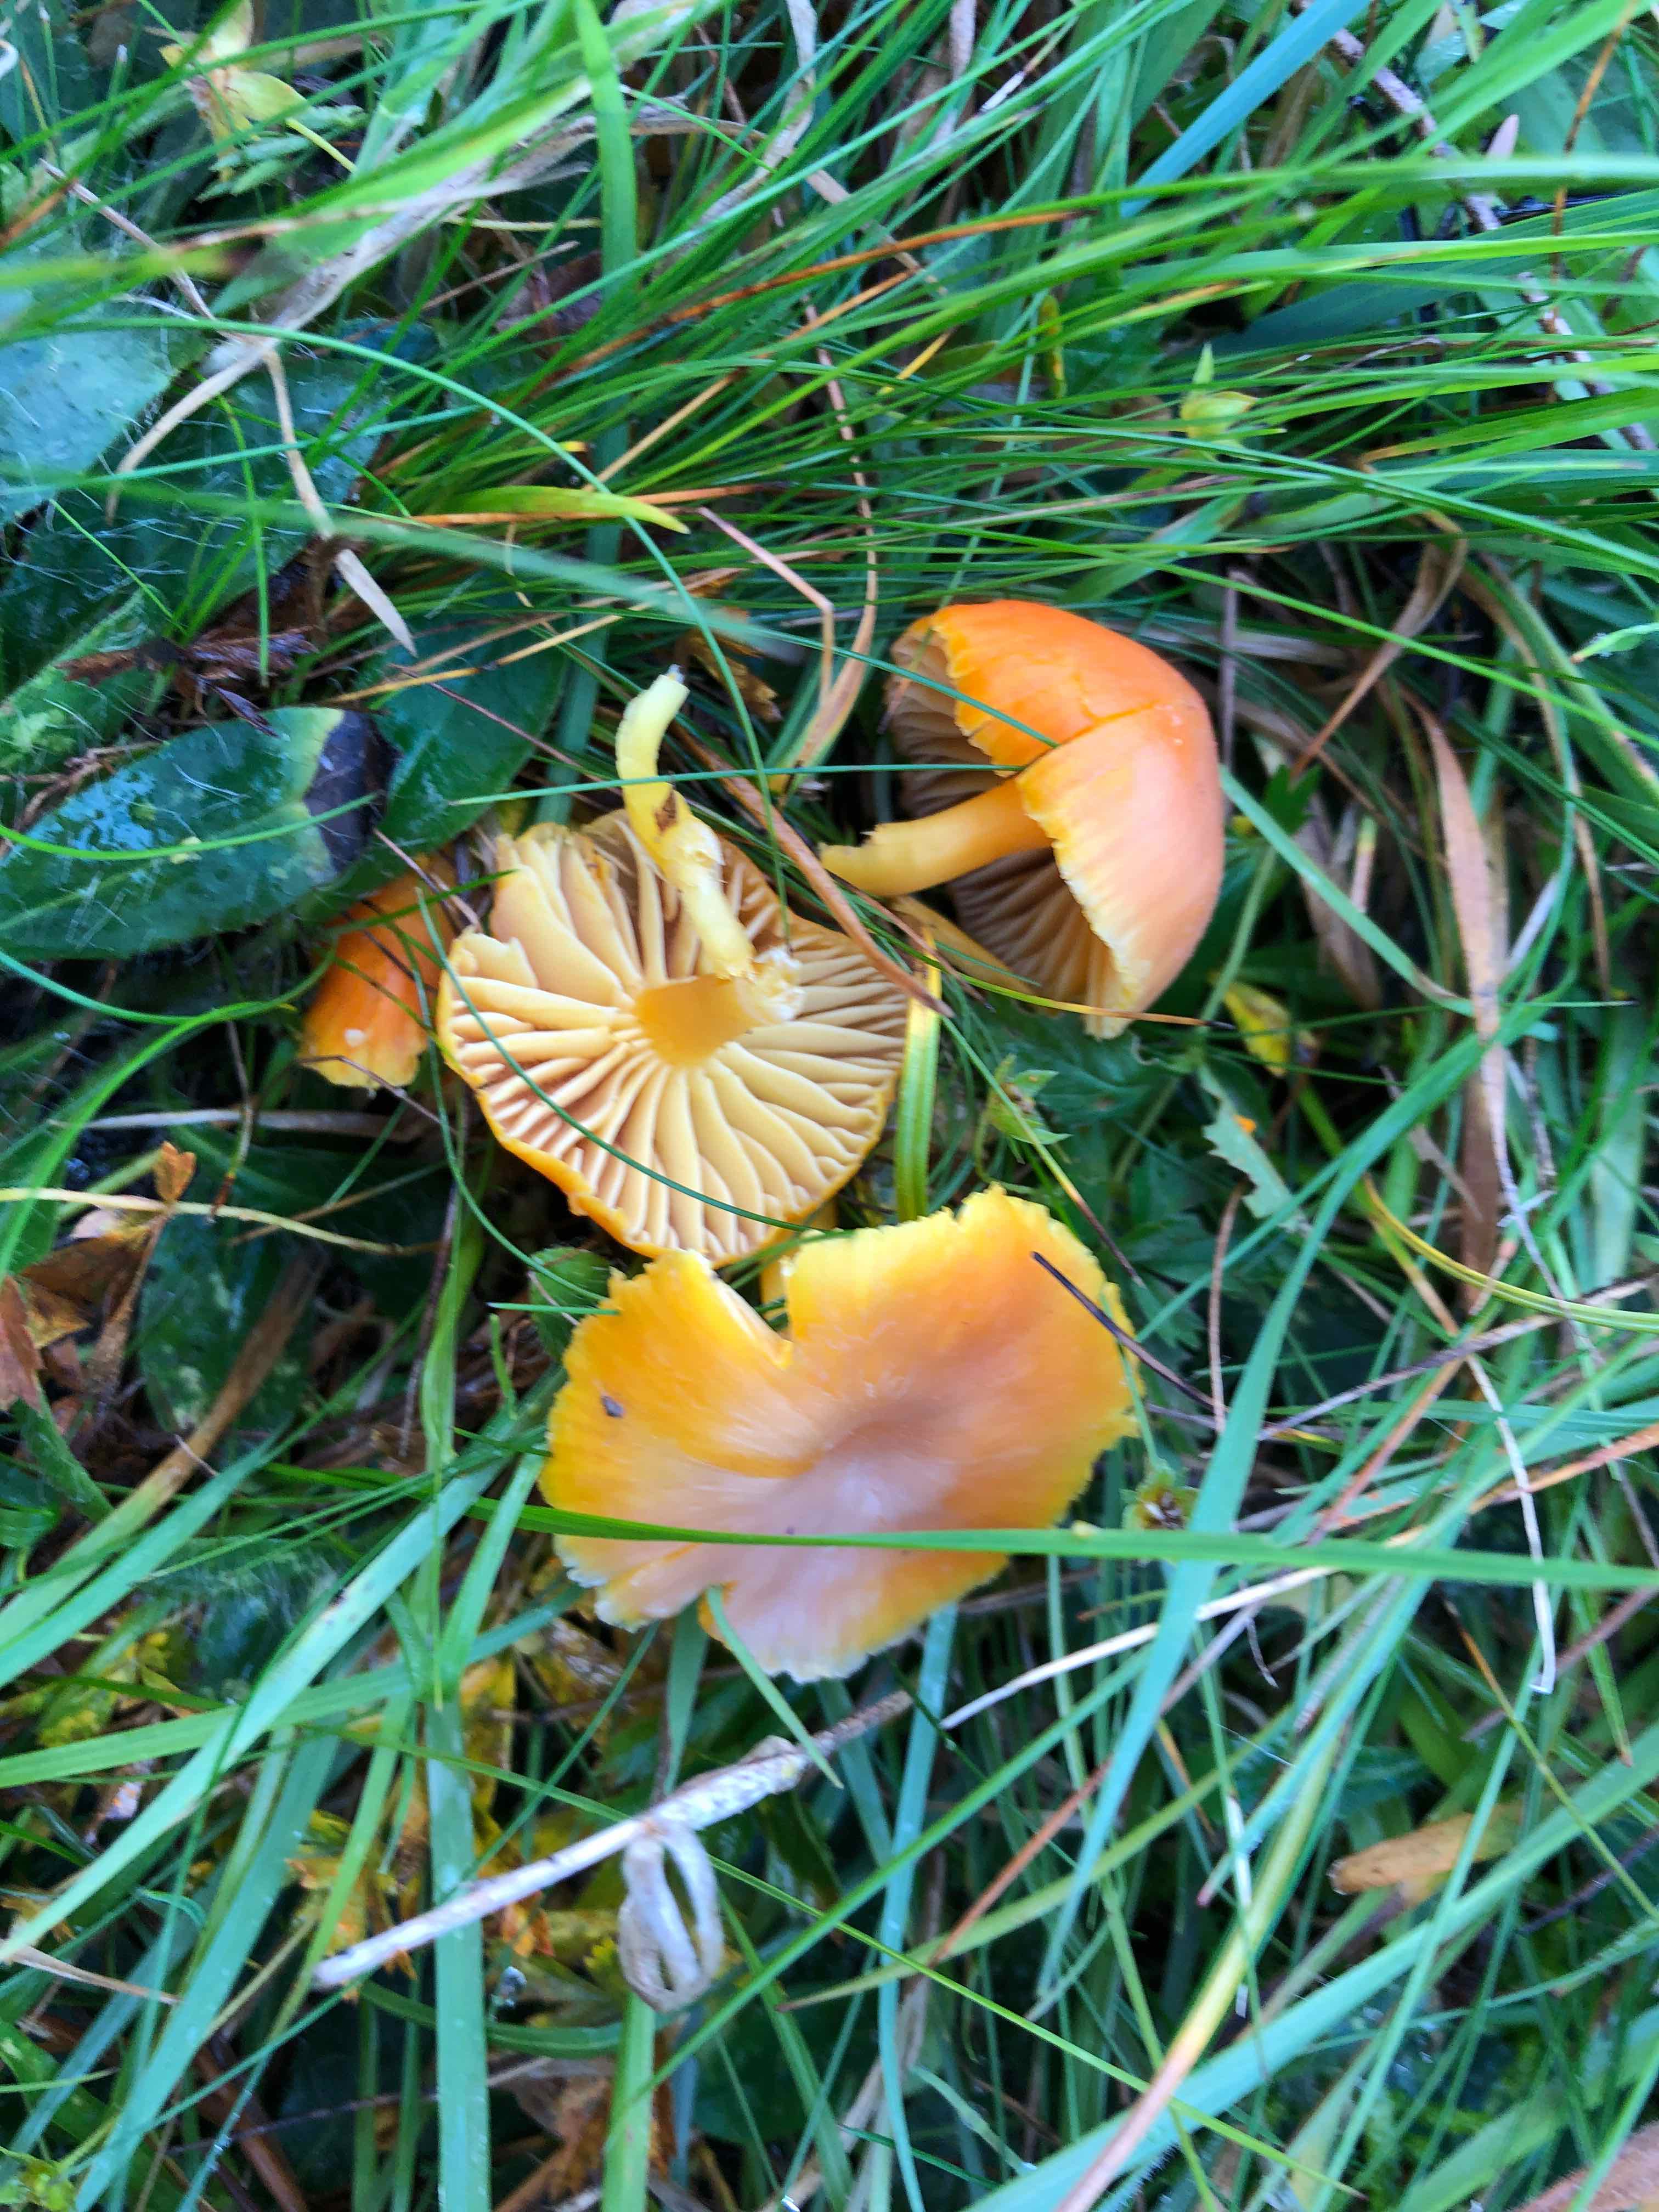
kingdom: Fungi
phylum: Basidiomycota
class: Agaricomycetes
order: Agaricales
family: Hygrophoraceae
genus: Hygrocybe
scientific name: Hygrocybe reidii
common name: honning-vokshat
